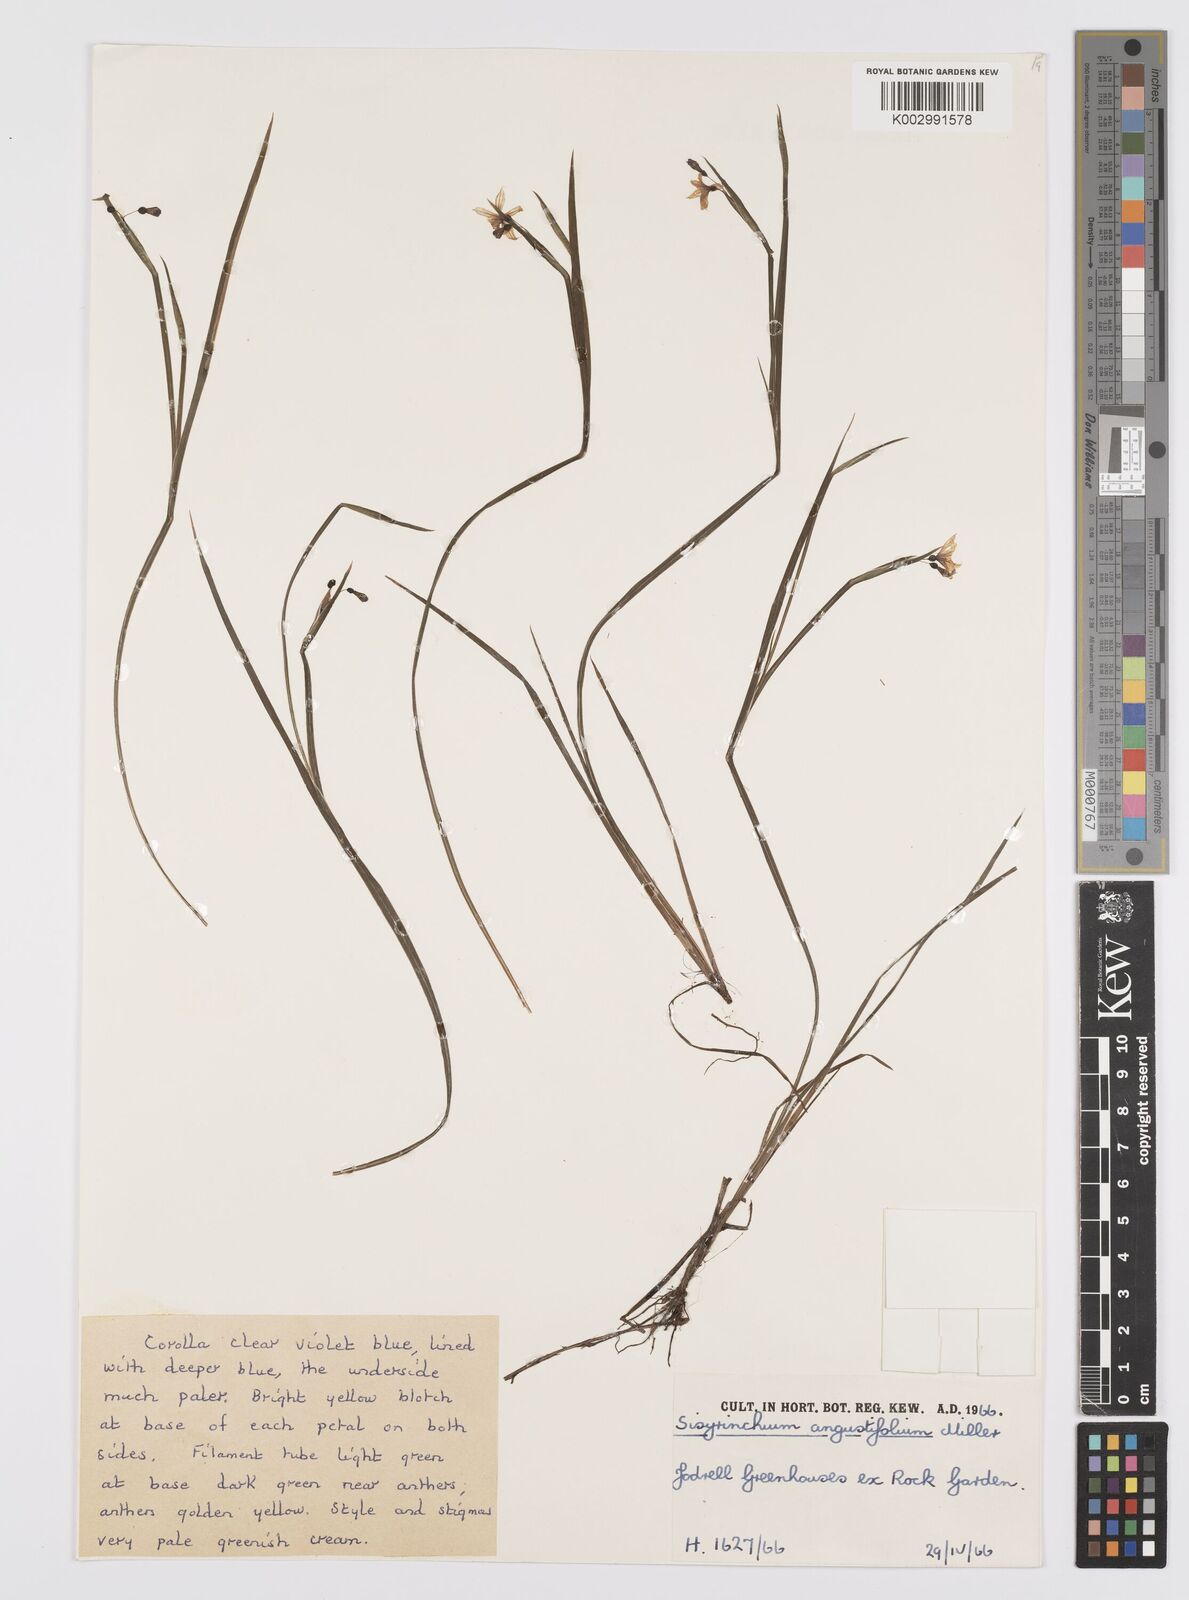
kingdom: Plantae
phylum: Tracheophyta
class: Liliopsida
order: Asparagales
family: Iridaceae
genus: Sisyrinchium
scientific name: Sisyrinchium angustifolium
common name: Narrow-leaf blue-eyed-grass
